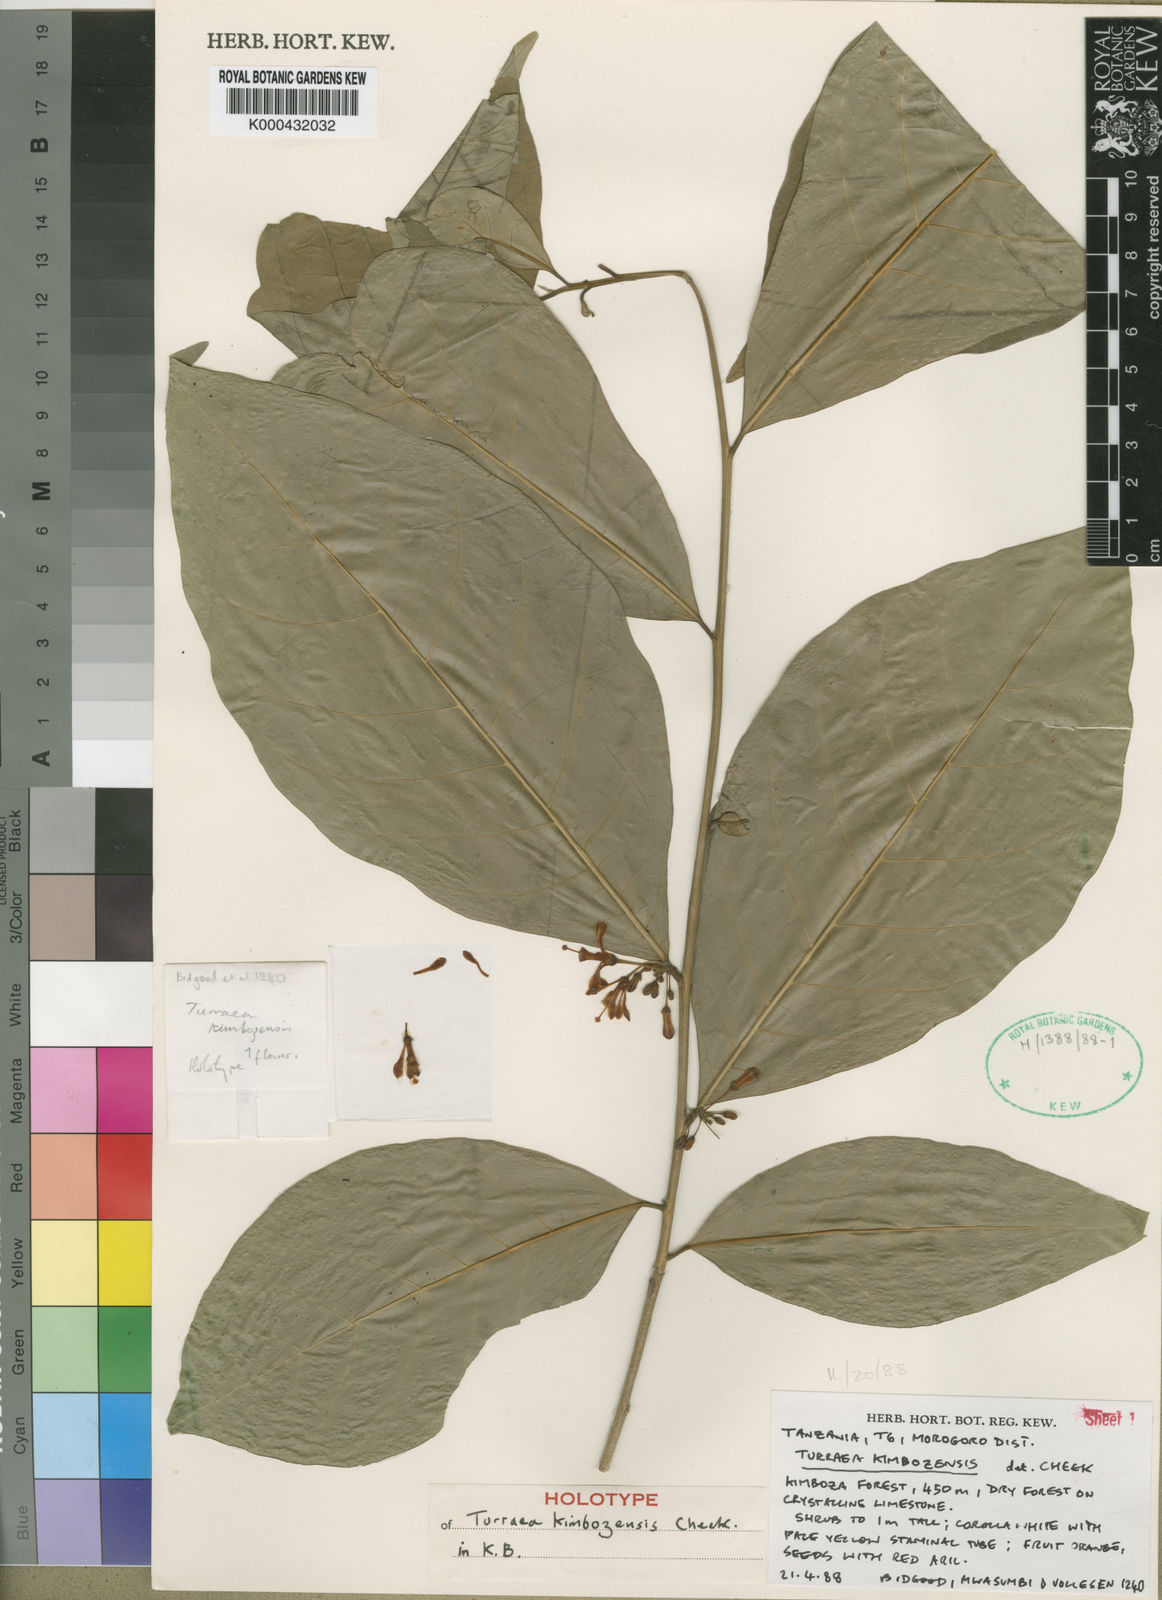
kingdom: Plantae
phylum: Tracheophyta
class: Magnoliopsida
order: Sapindales
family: Meliaceae
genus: Turraea
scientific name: Turraea kimbozensis
